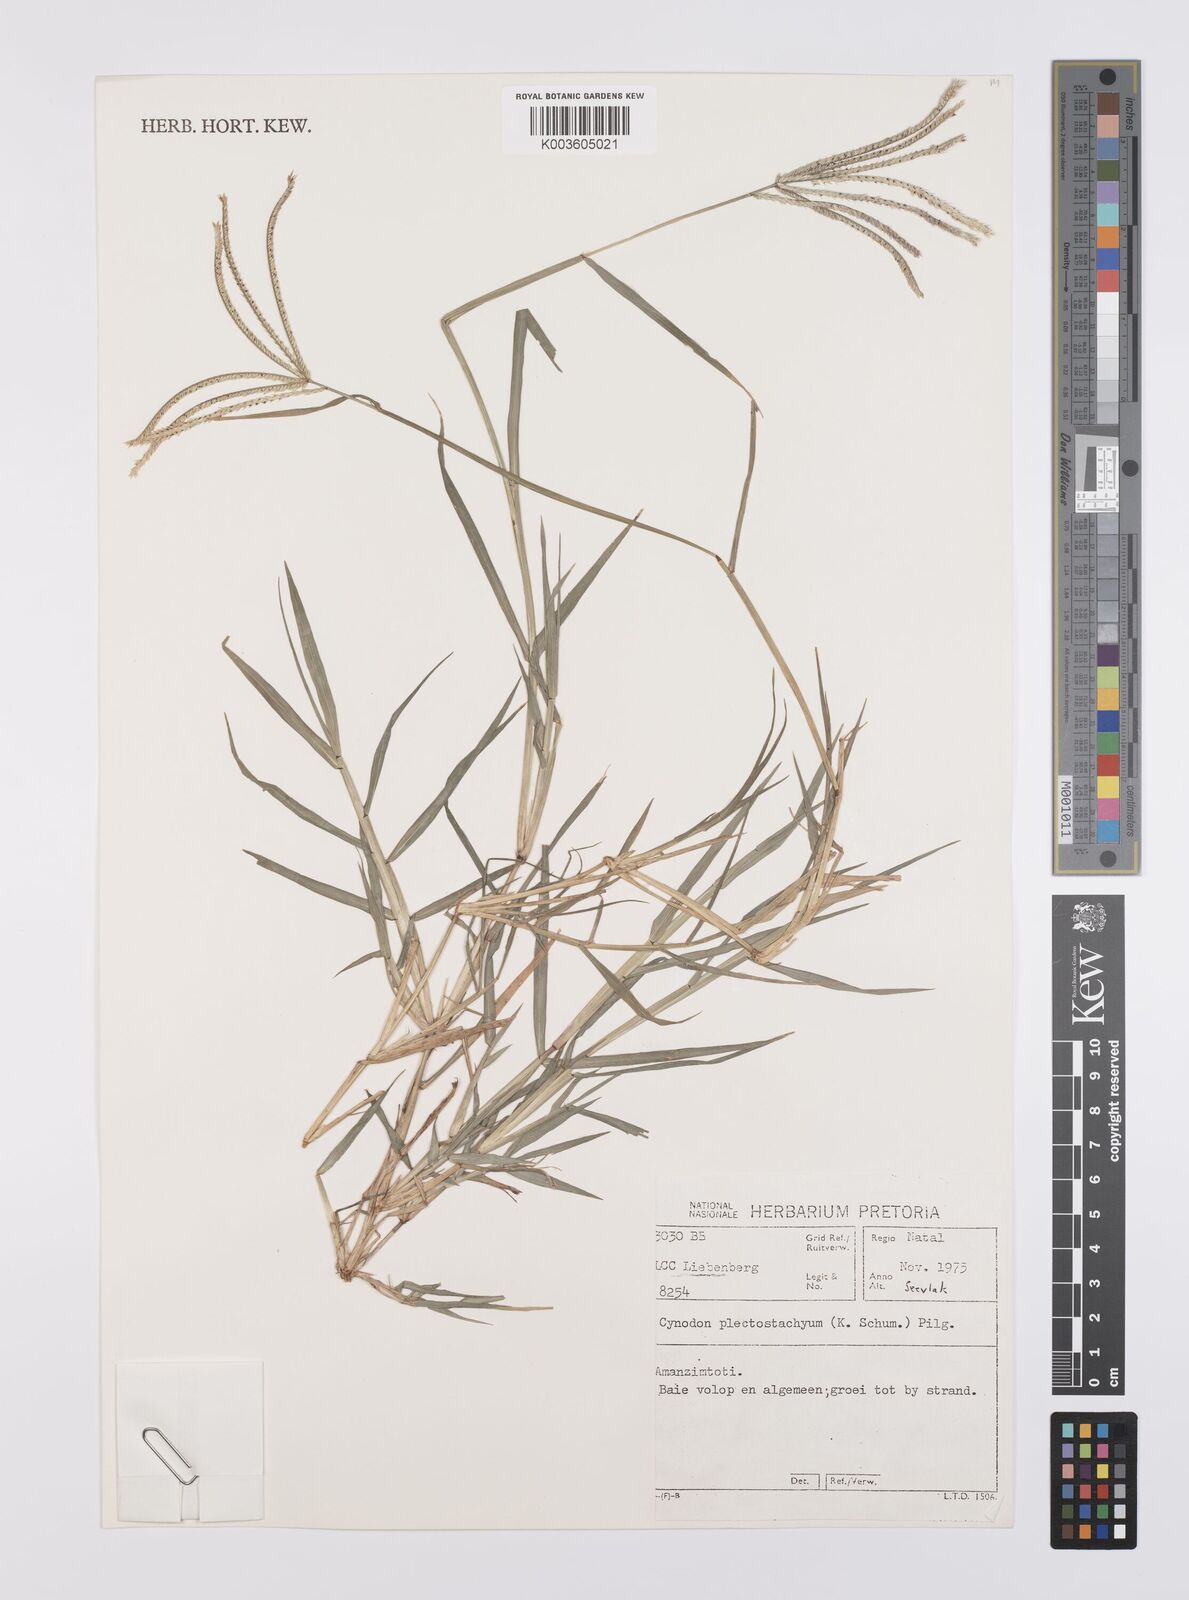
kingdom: Plantae
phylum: Tracheophyta
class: Liliopsida
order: Poales
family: Poaceae
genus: Cynodon
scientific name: Cynodon plectostachyus
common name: Stargrass
